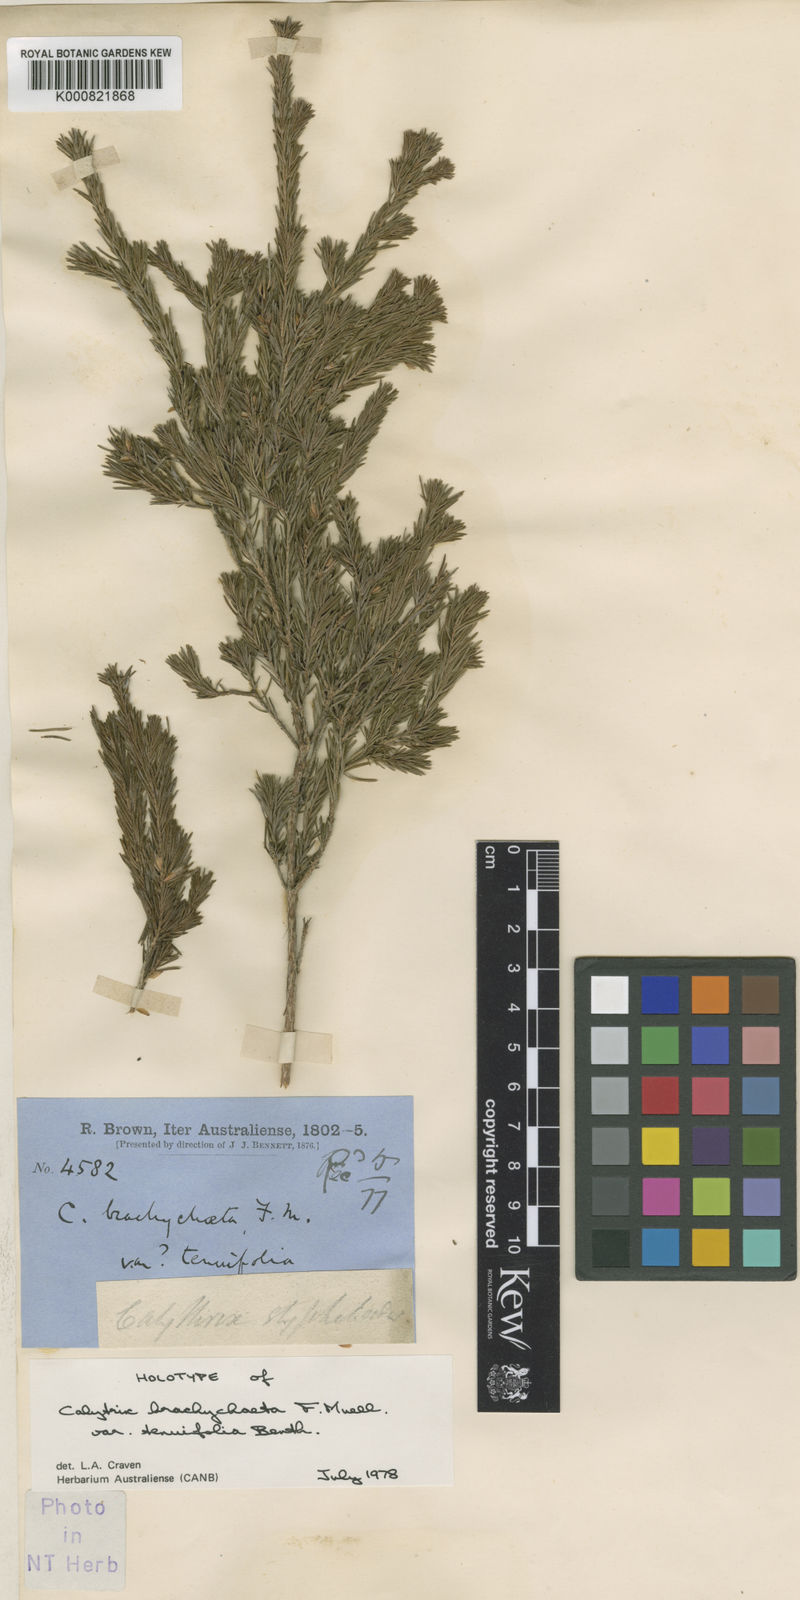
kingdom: Plantae
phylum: Tracheophyta
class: Magnoliopsida
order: Myrtales
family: Myrtaceae
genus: Calytrix
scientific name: Calytrix brownii
